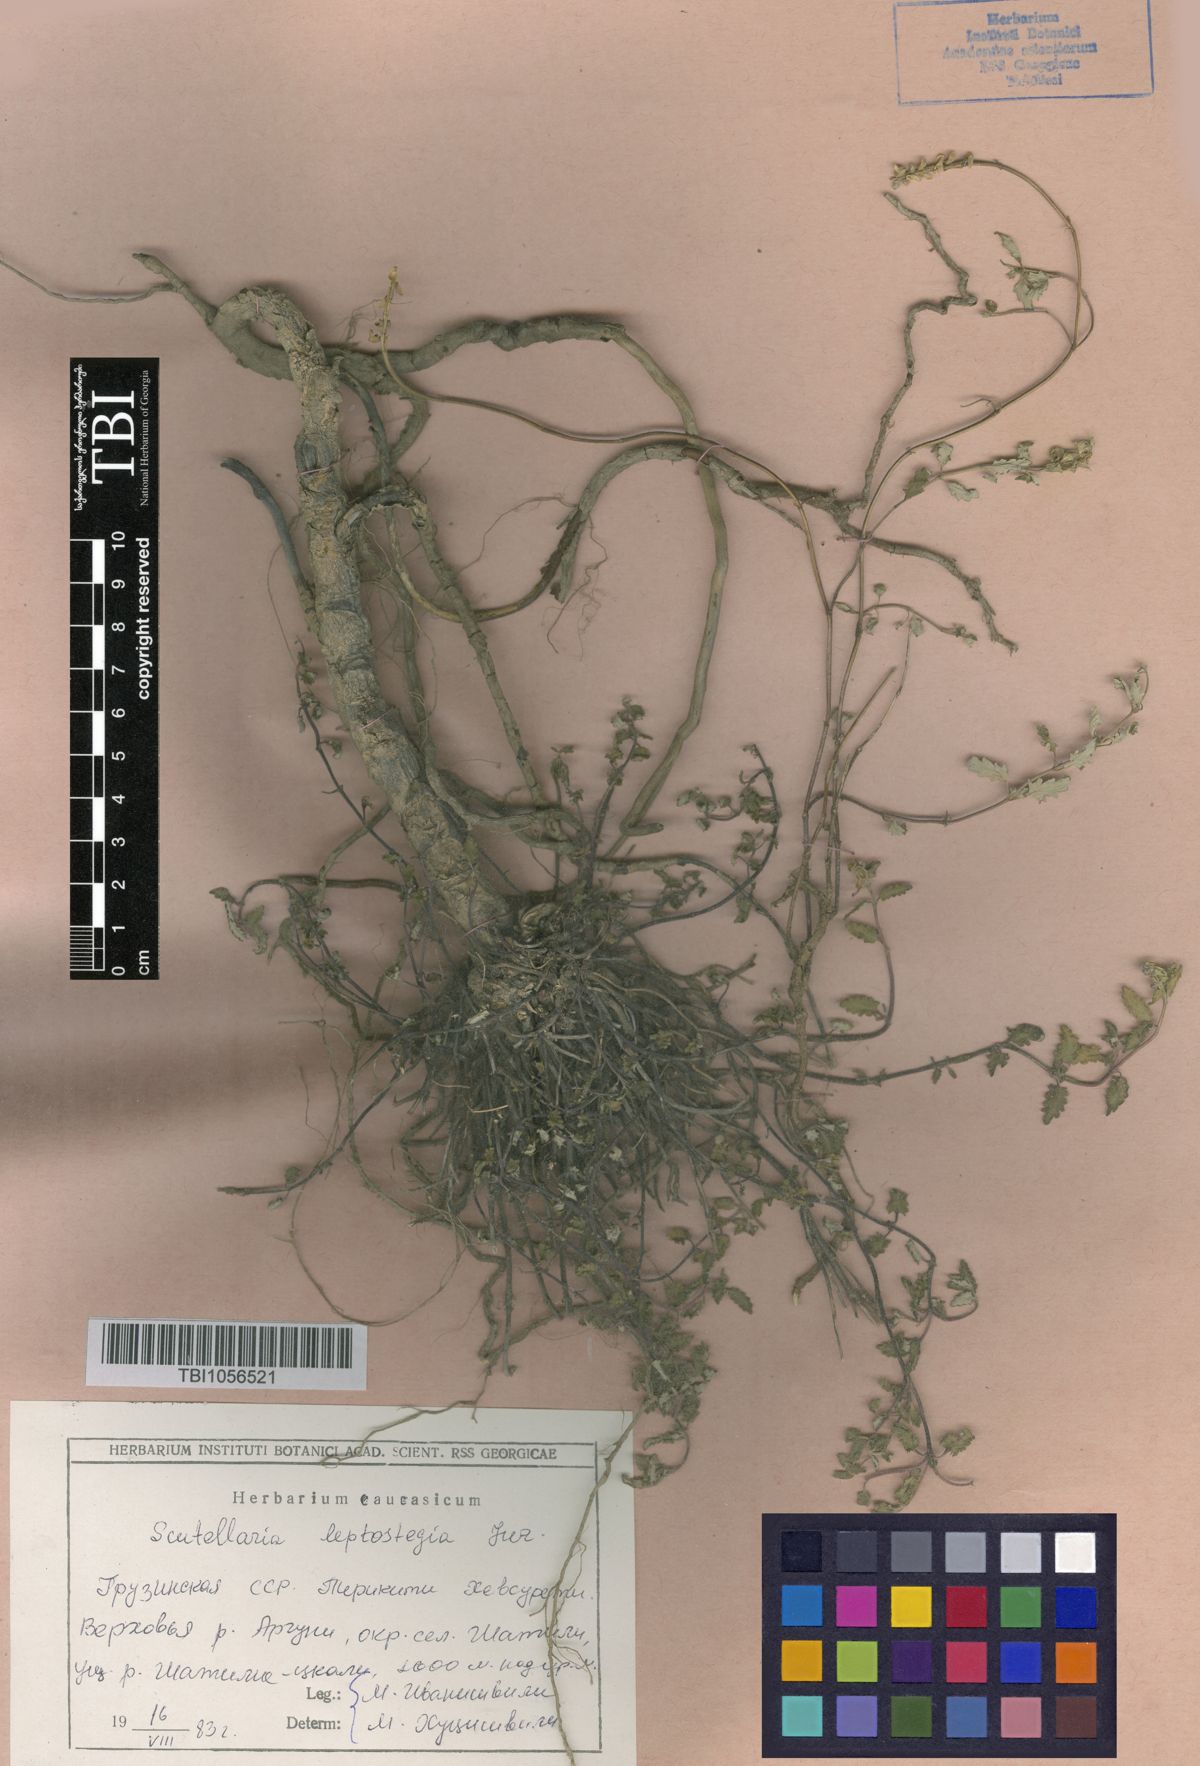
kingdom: Plantae
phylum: Tracheophyta
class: Magnoliopsida
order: Lamiales
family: Lamiaceae
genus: Scutellaria
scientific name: Scutellaria leptostegia
